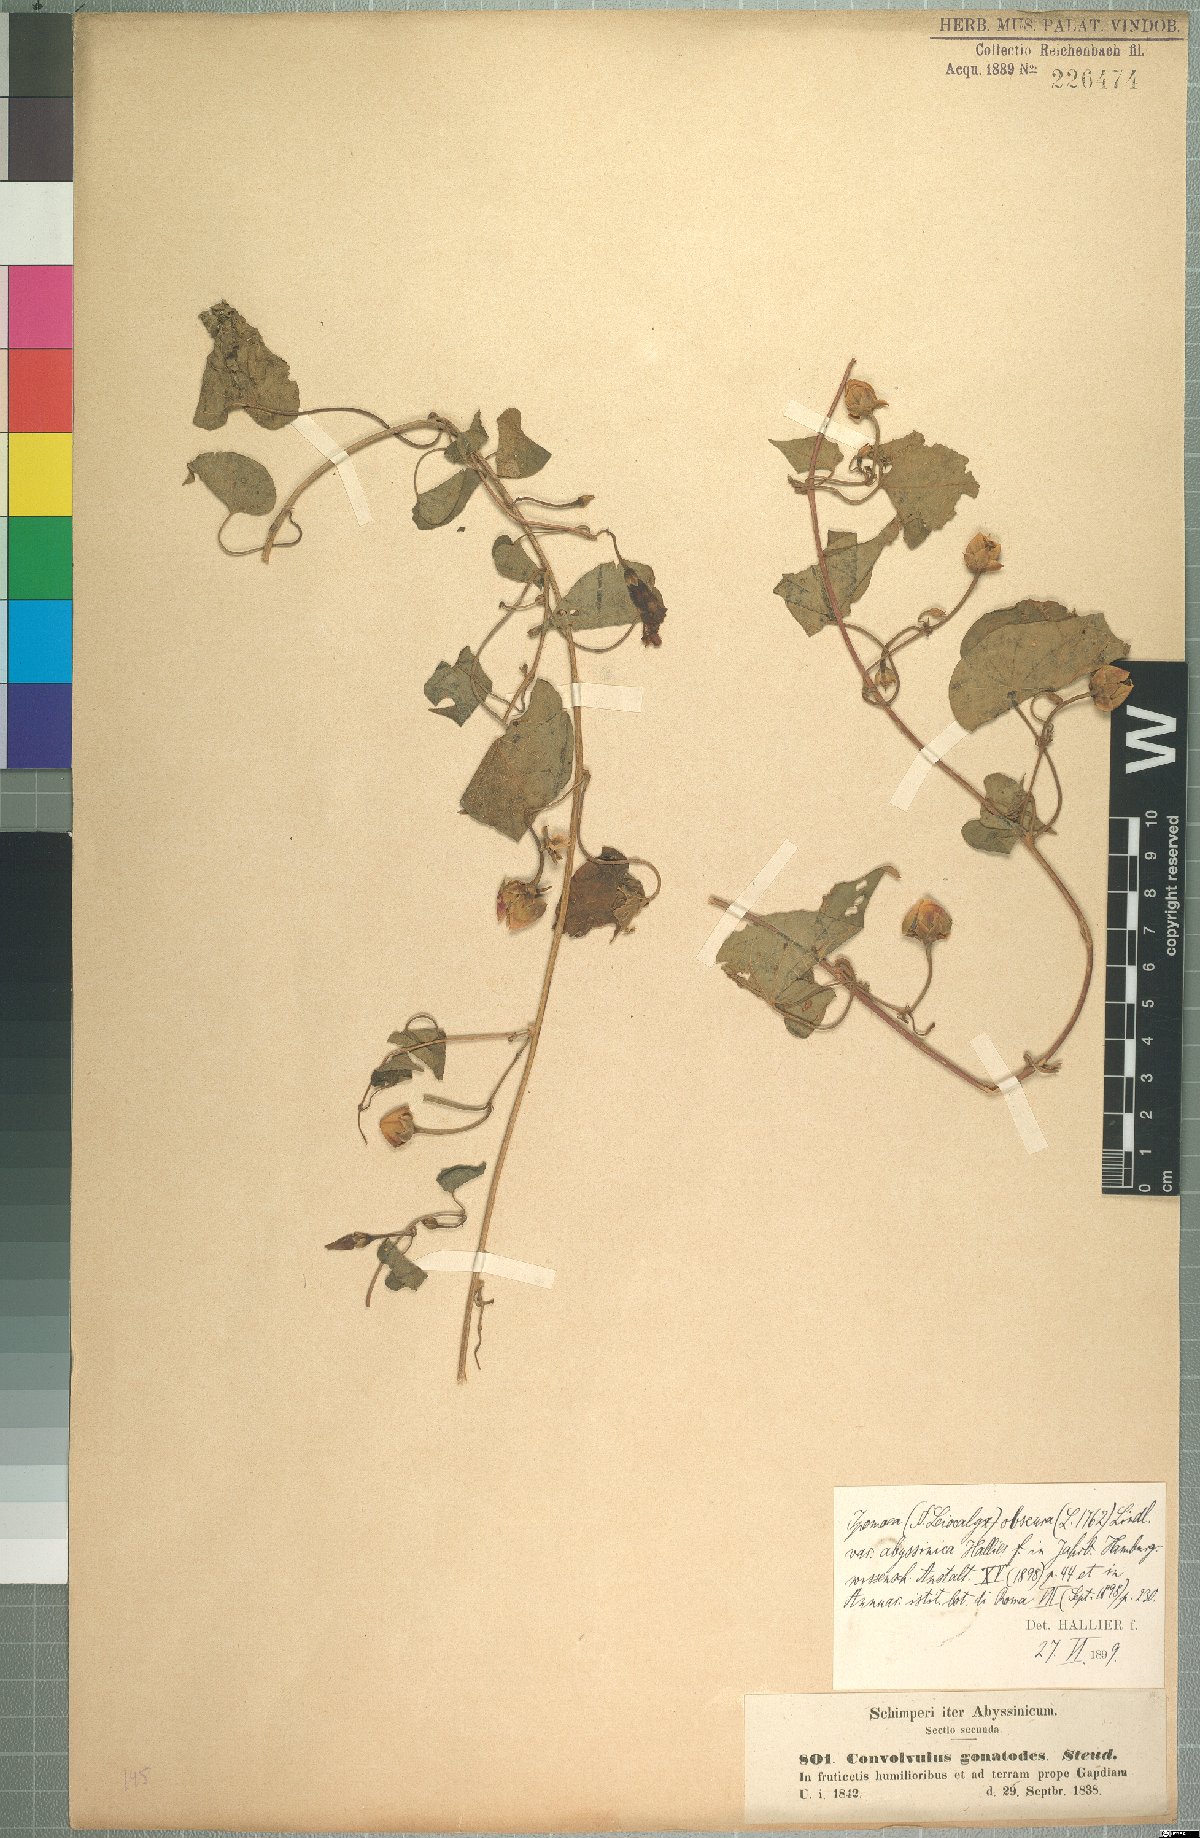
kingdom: Plantae
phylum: Tracheophyta
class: Magnoliopsida
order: Solanales
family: Convolvulaceae
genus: Ipomoea
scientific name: Ipomoea obscura
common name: Obscure morning-glory
